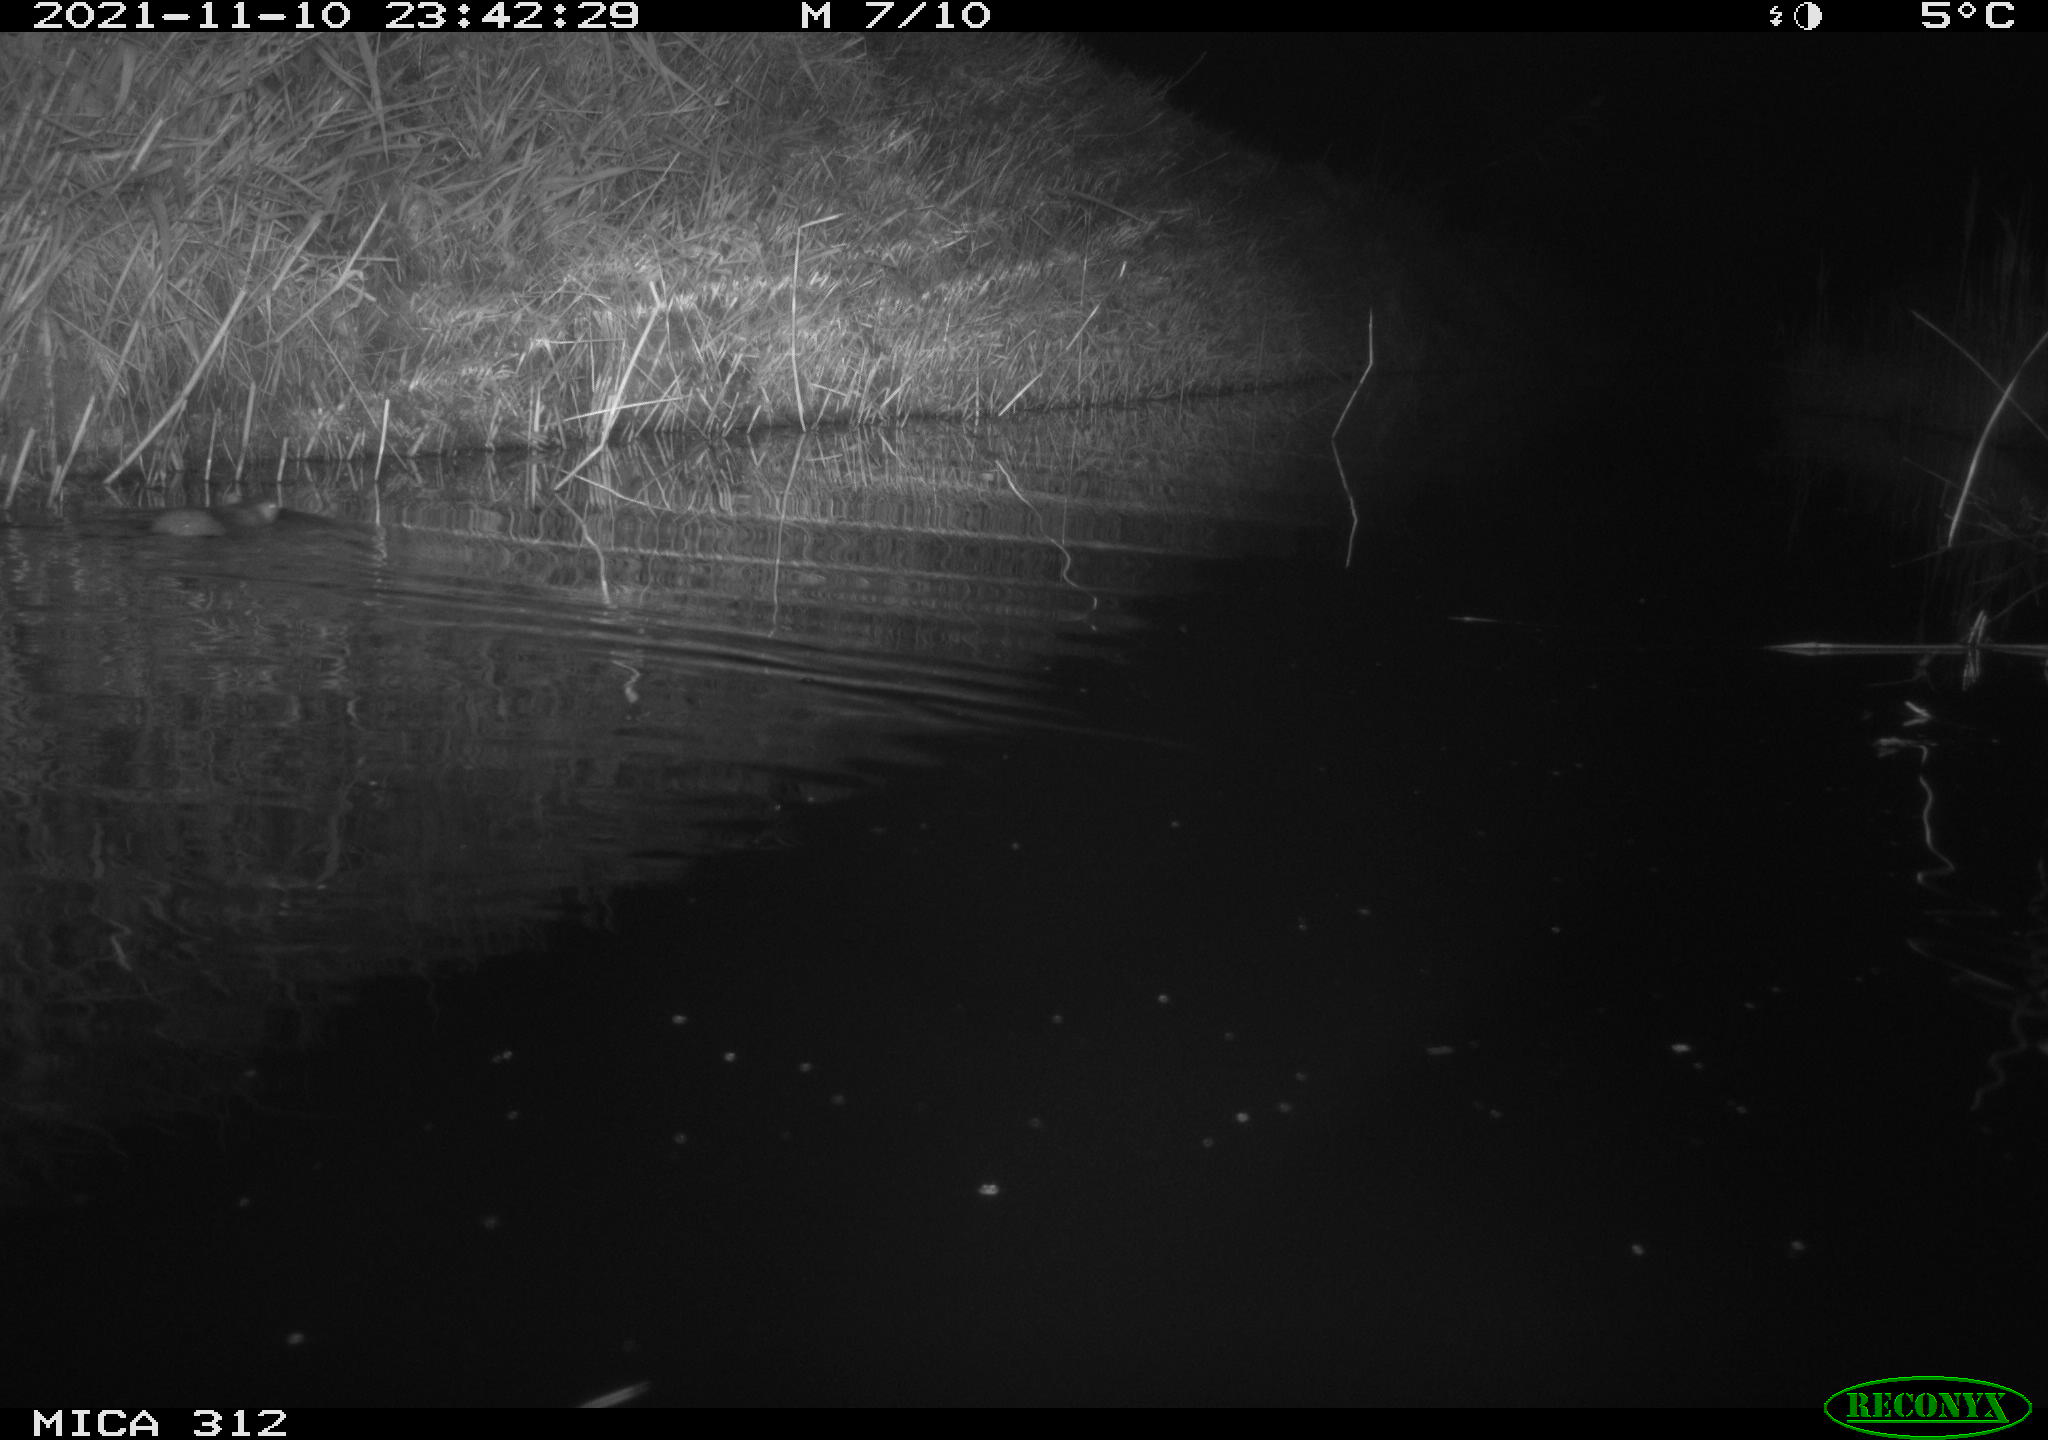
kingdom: Animalia
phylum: Chordata
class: Mammalia
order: Rodentia
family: Muridae
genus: Rattus
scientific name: Rattus norvegicus
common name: Brown rat
